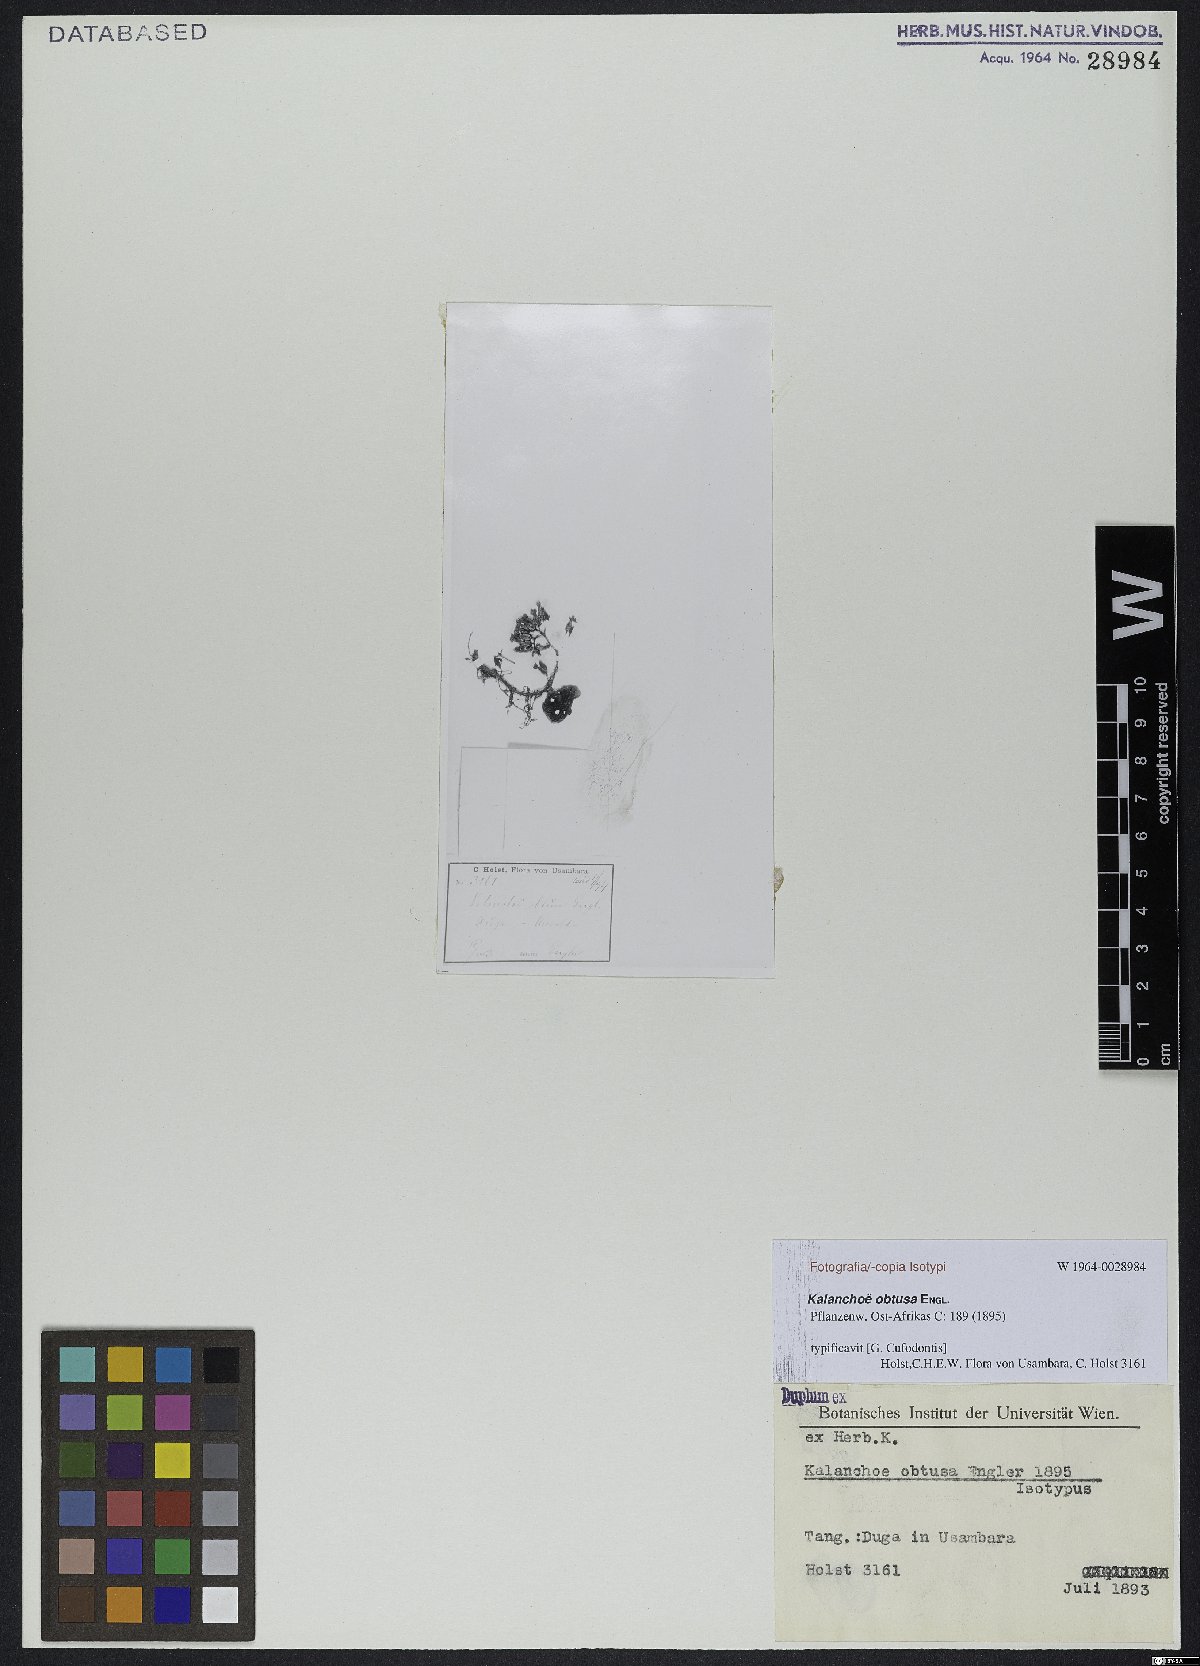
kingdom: Plantae
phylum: Tracheophyta
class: Magnoliopsida
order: Saxifragales
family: Crassulaceae
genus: Kalanchoe
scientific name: Kalanchoe obtusa
